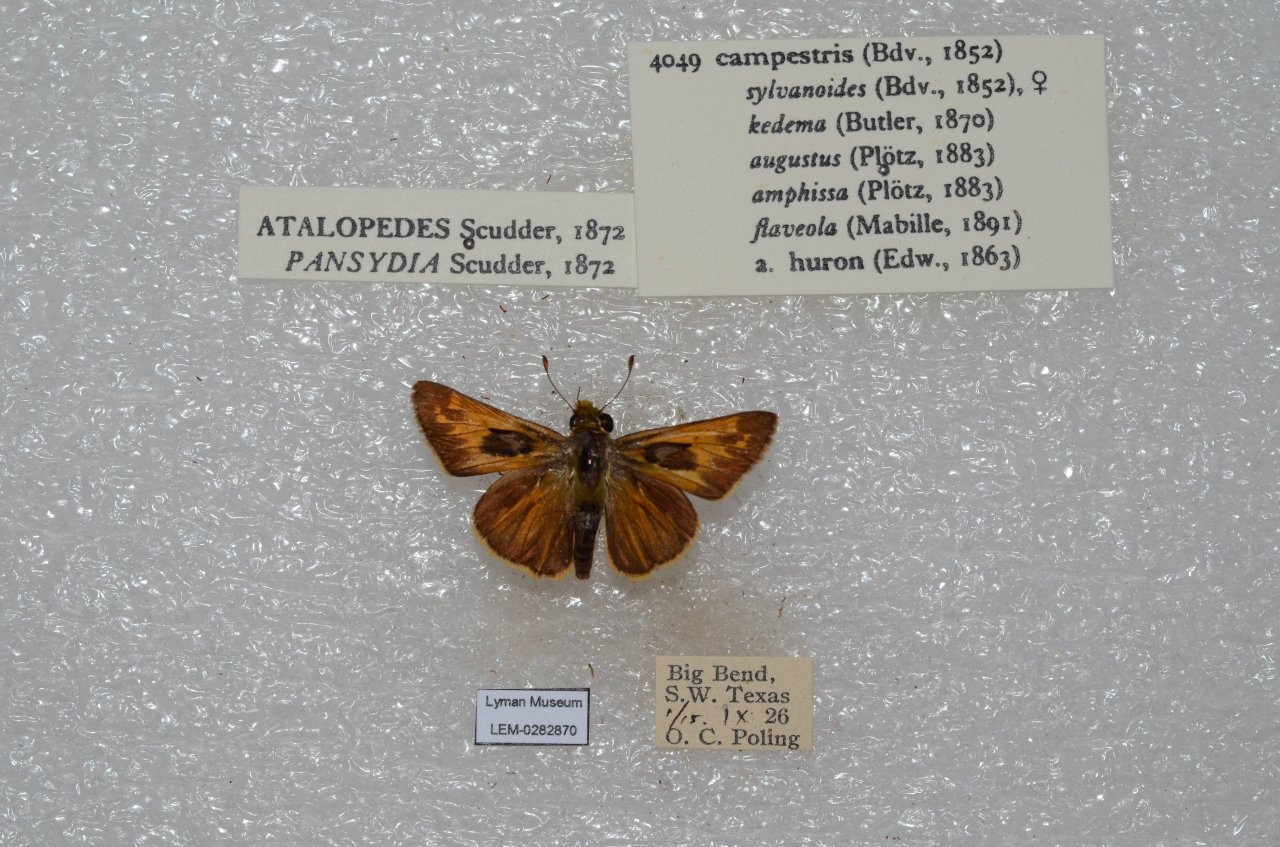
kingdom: Animalia
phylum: Arthropoda
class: Insecta
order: Lepidoptera
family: Hesperiidae
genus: Vernia
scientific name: Vernia verna
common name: Little Glassywing
